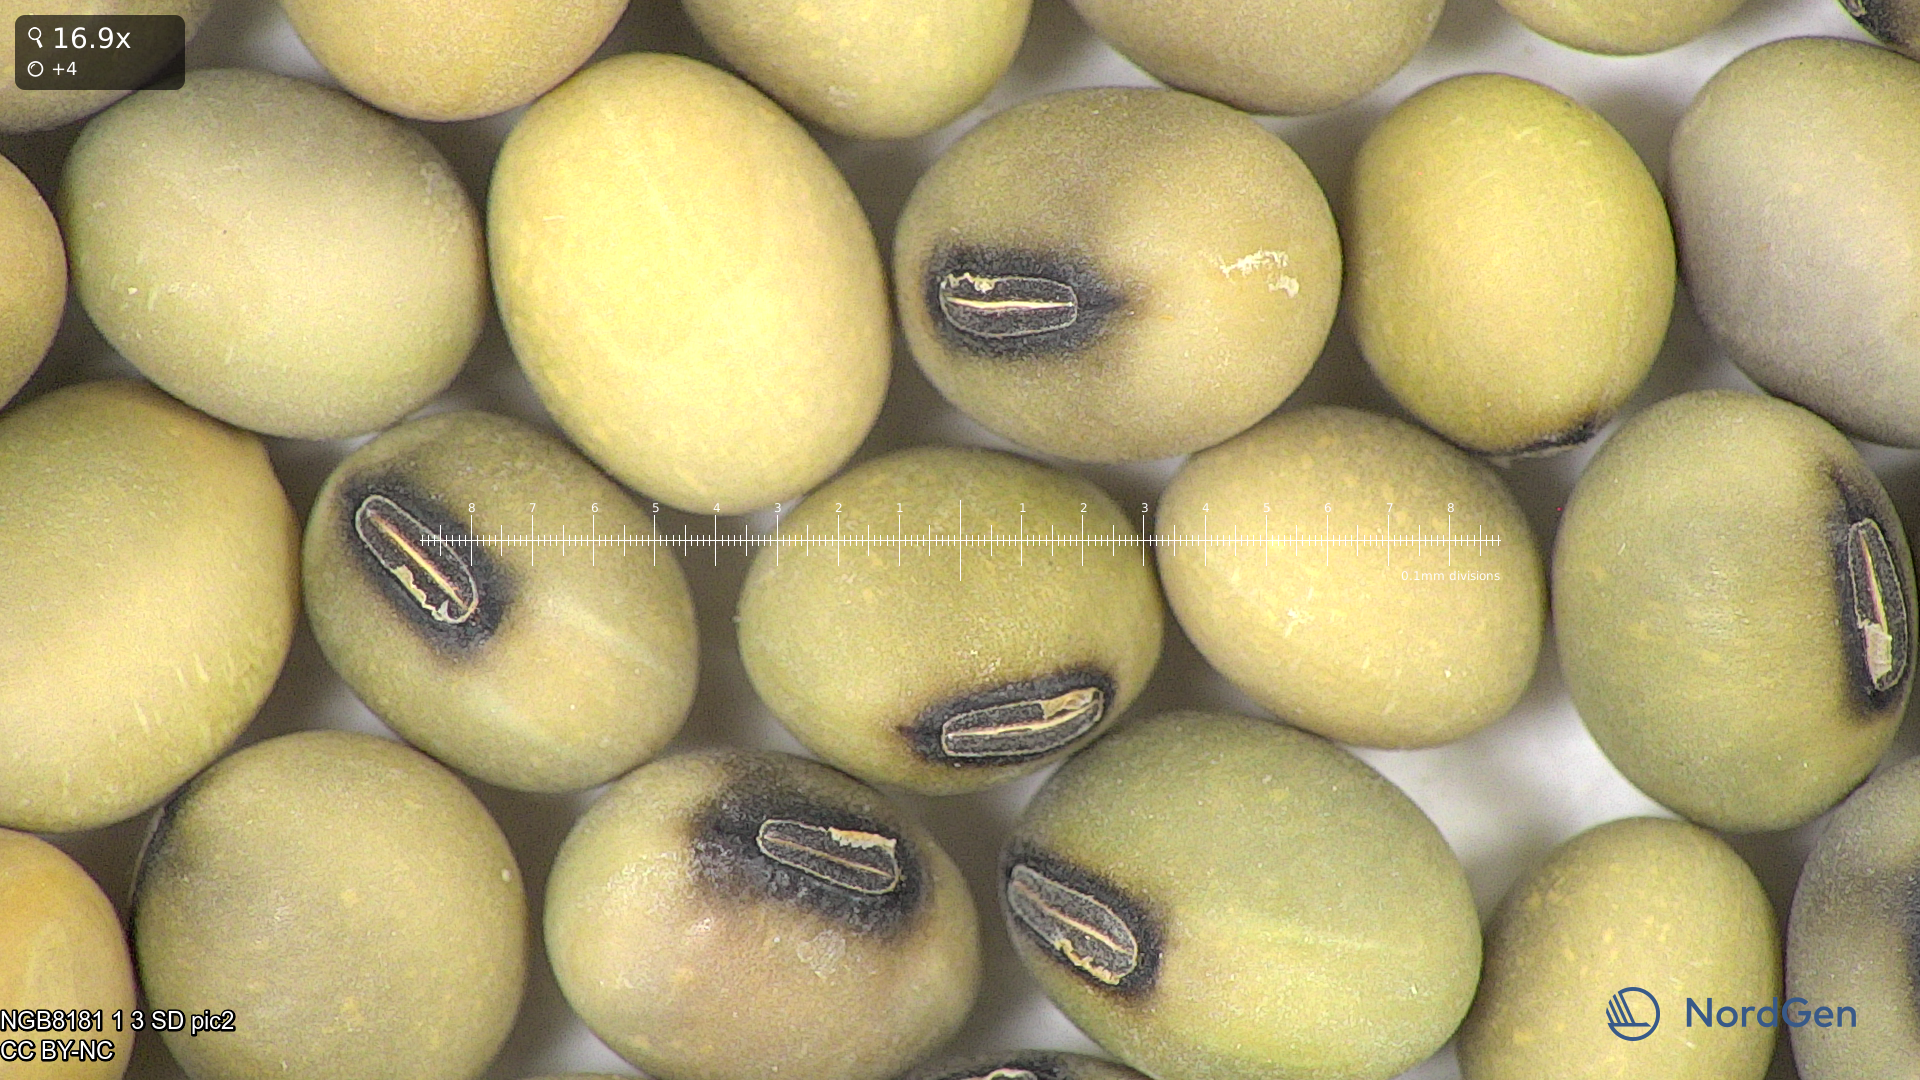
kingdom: Plantae
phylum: Tracheophyta
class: Magnoliopsida
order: Fabales
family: Fabaceae
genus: Glycine
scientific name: Glycine max
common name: Soya-bean
